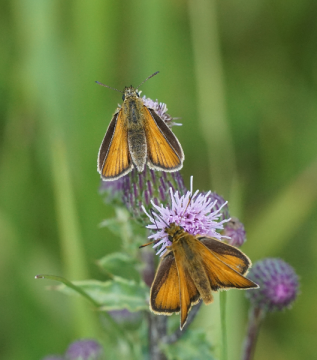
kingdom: Animalia
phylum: Arthropoda
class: Insecta
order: Lepidoptera
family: Hesperiidae
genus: Thymelicus
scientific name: Thymelicus lineola
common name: European Skipper
